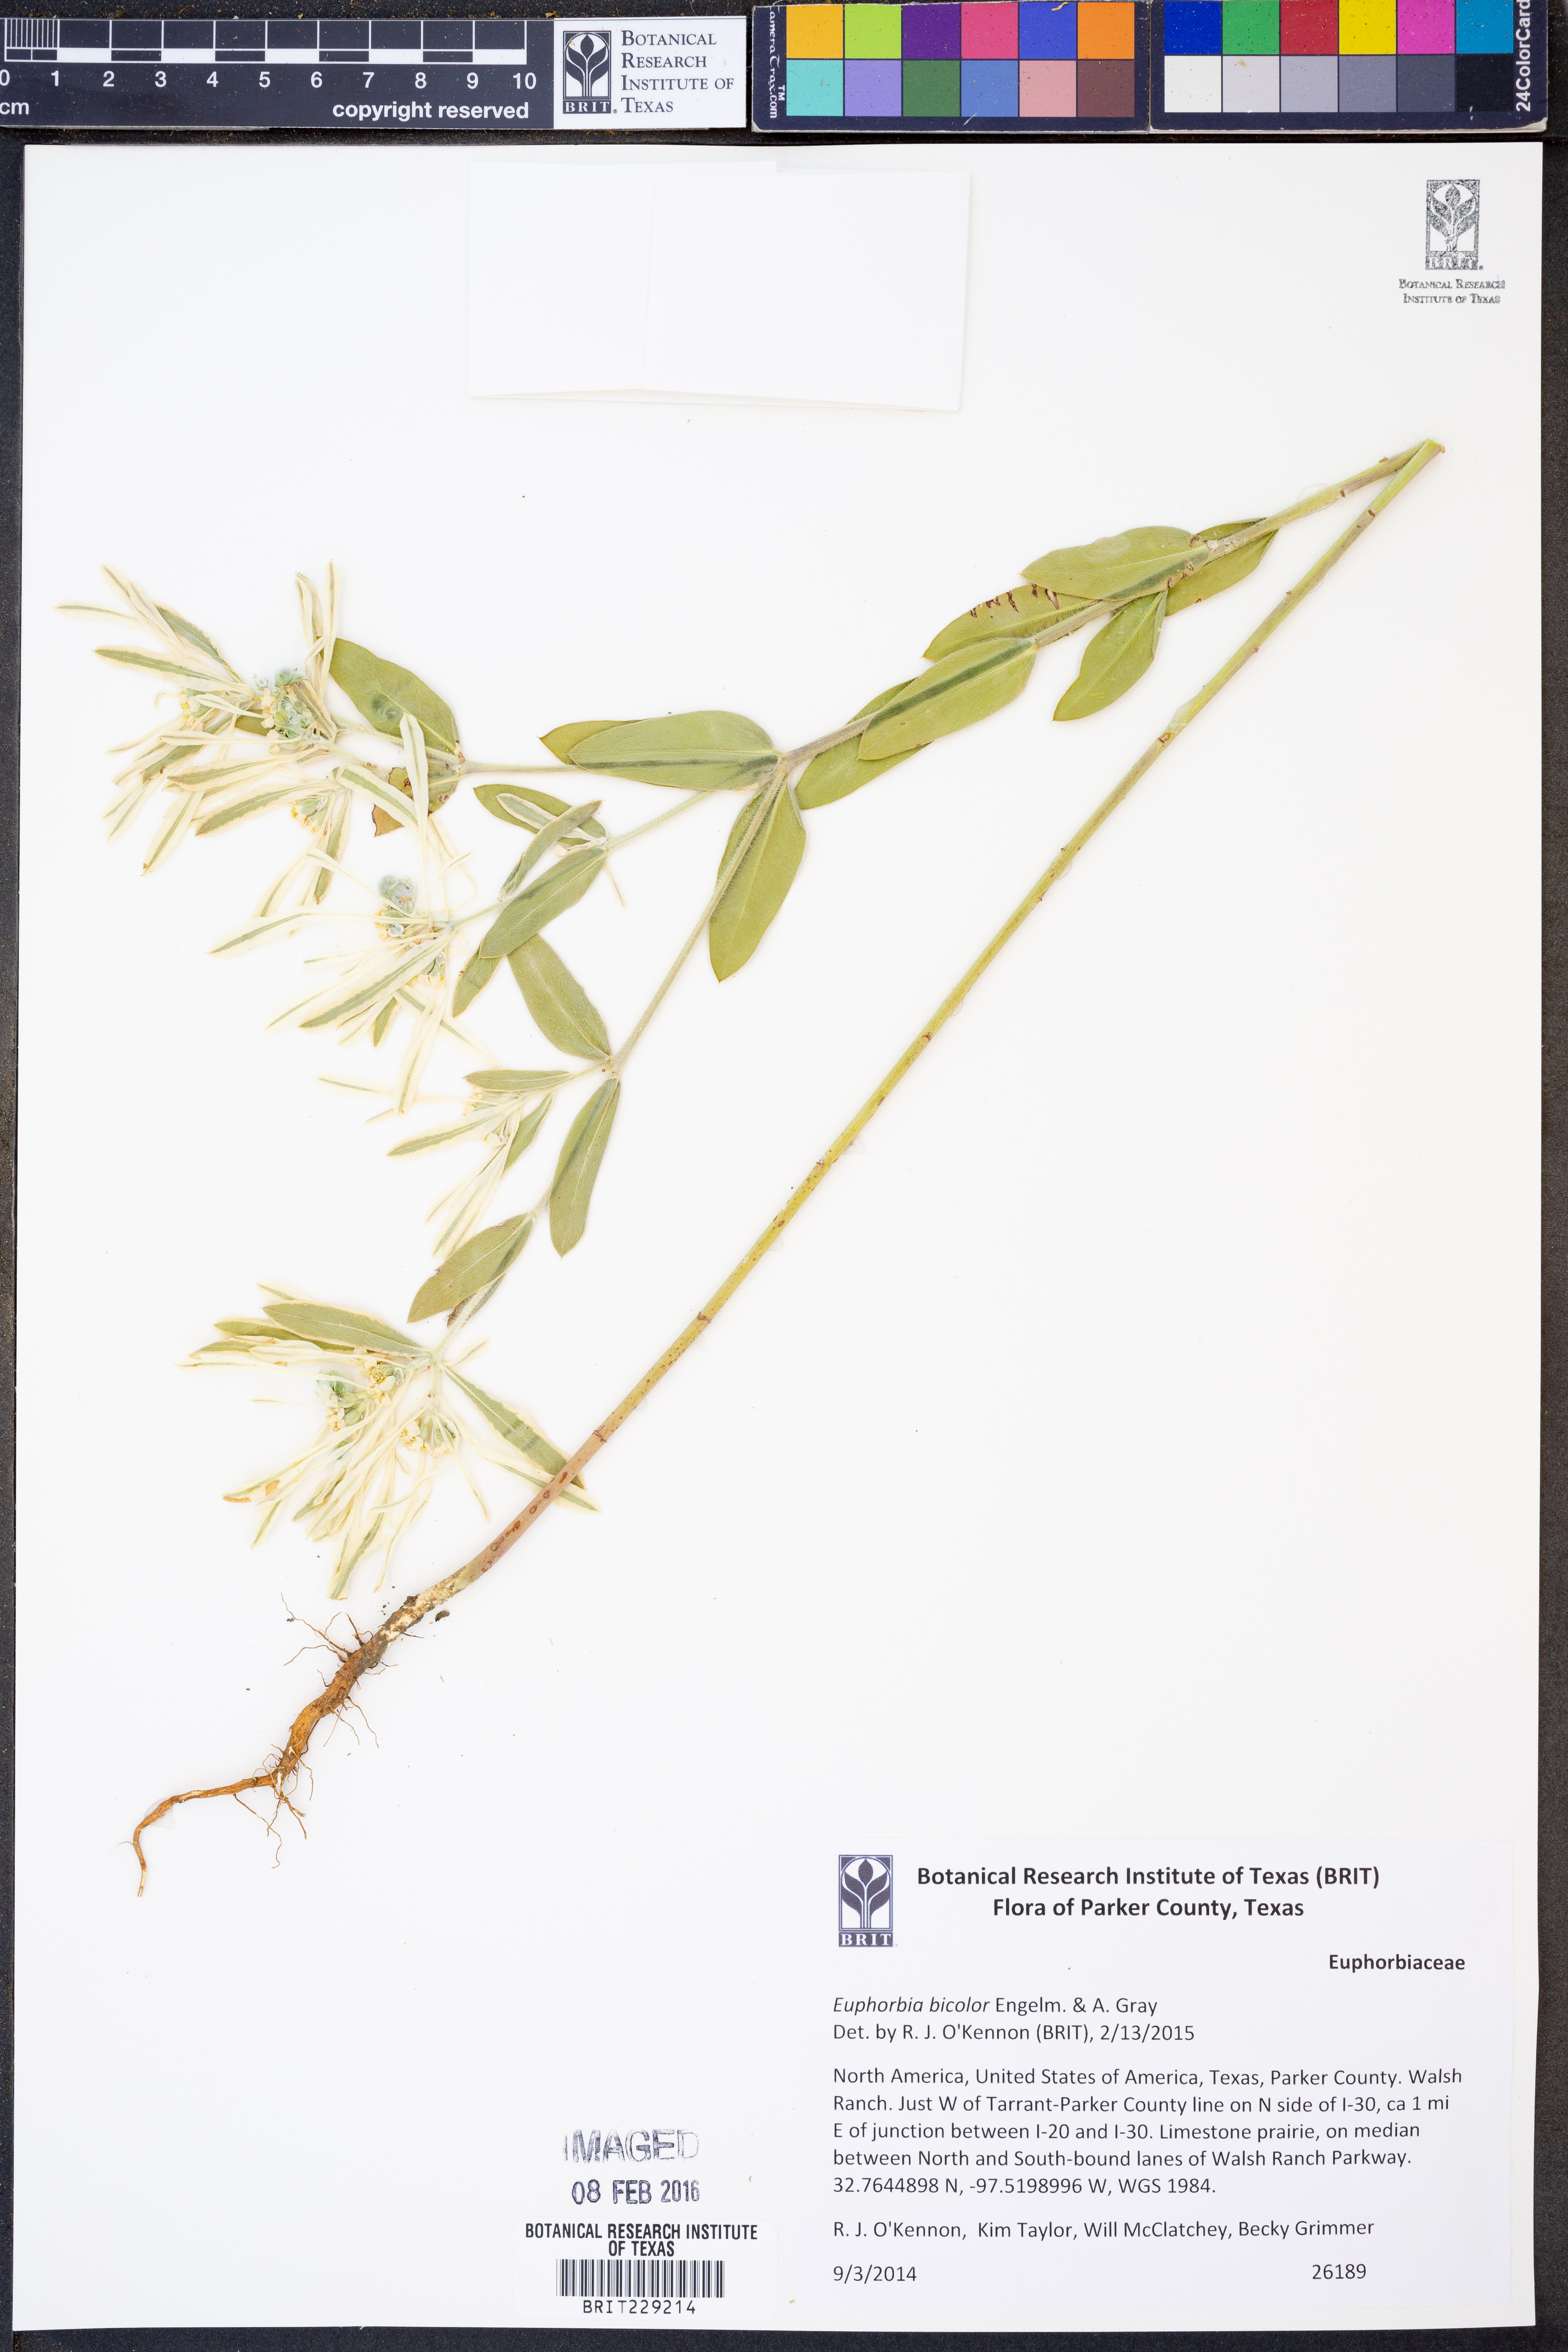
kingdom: Plantae
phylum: Tracheophyta
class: Magnoliopsida
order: Malpighiales
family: Euphorbiaceae
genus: Euphorbia
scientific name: Euphorbia bicolor
